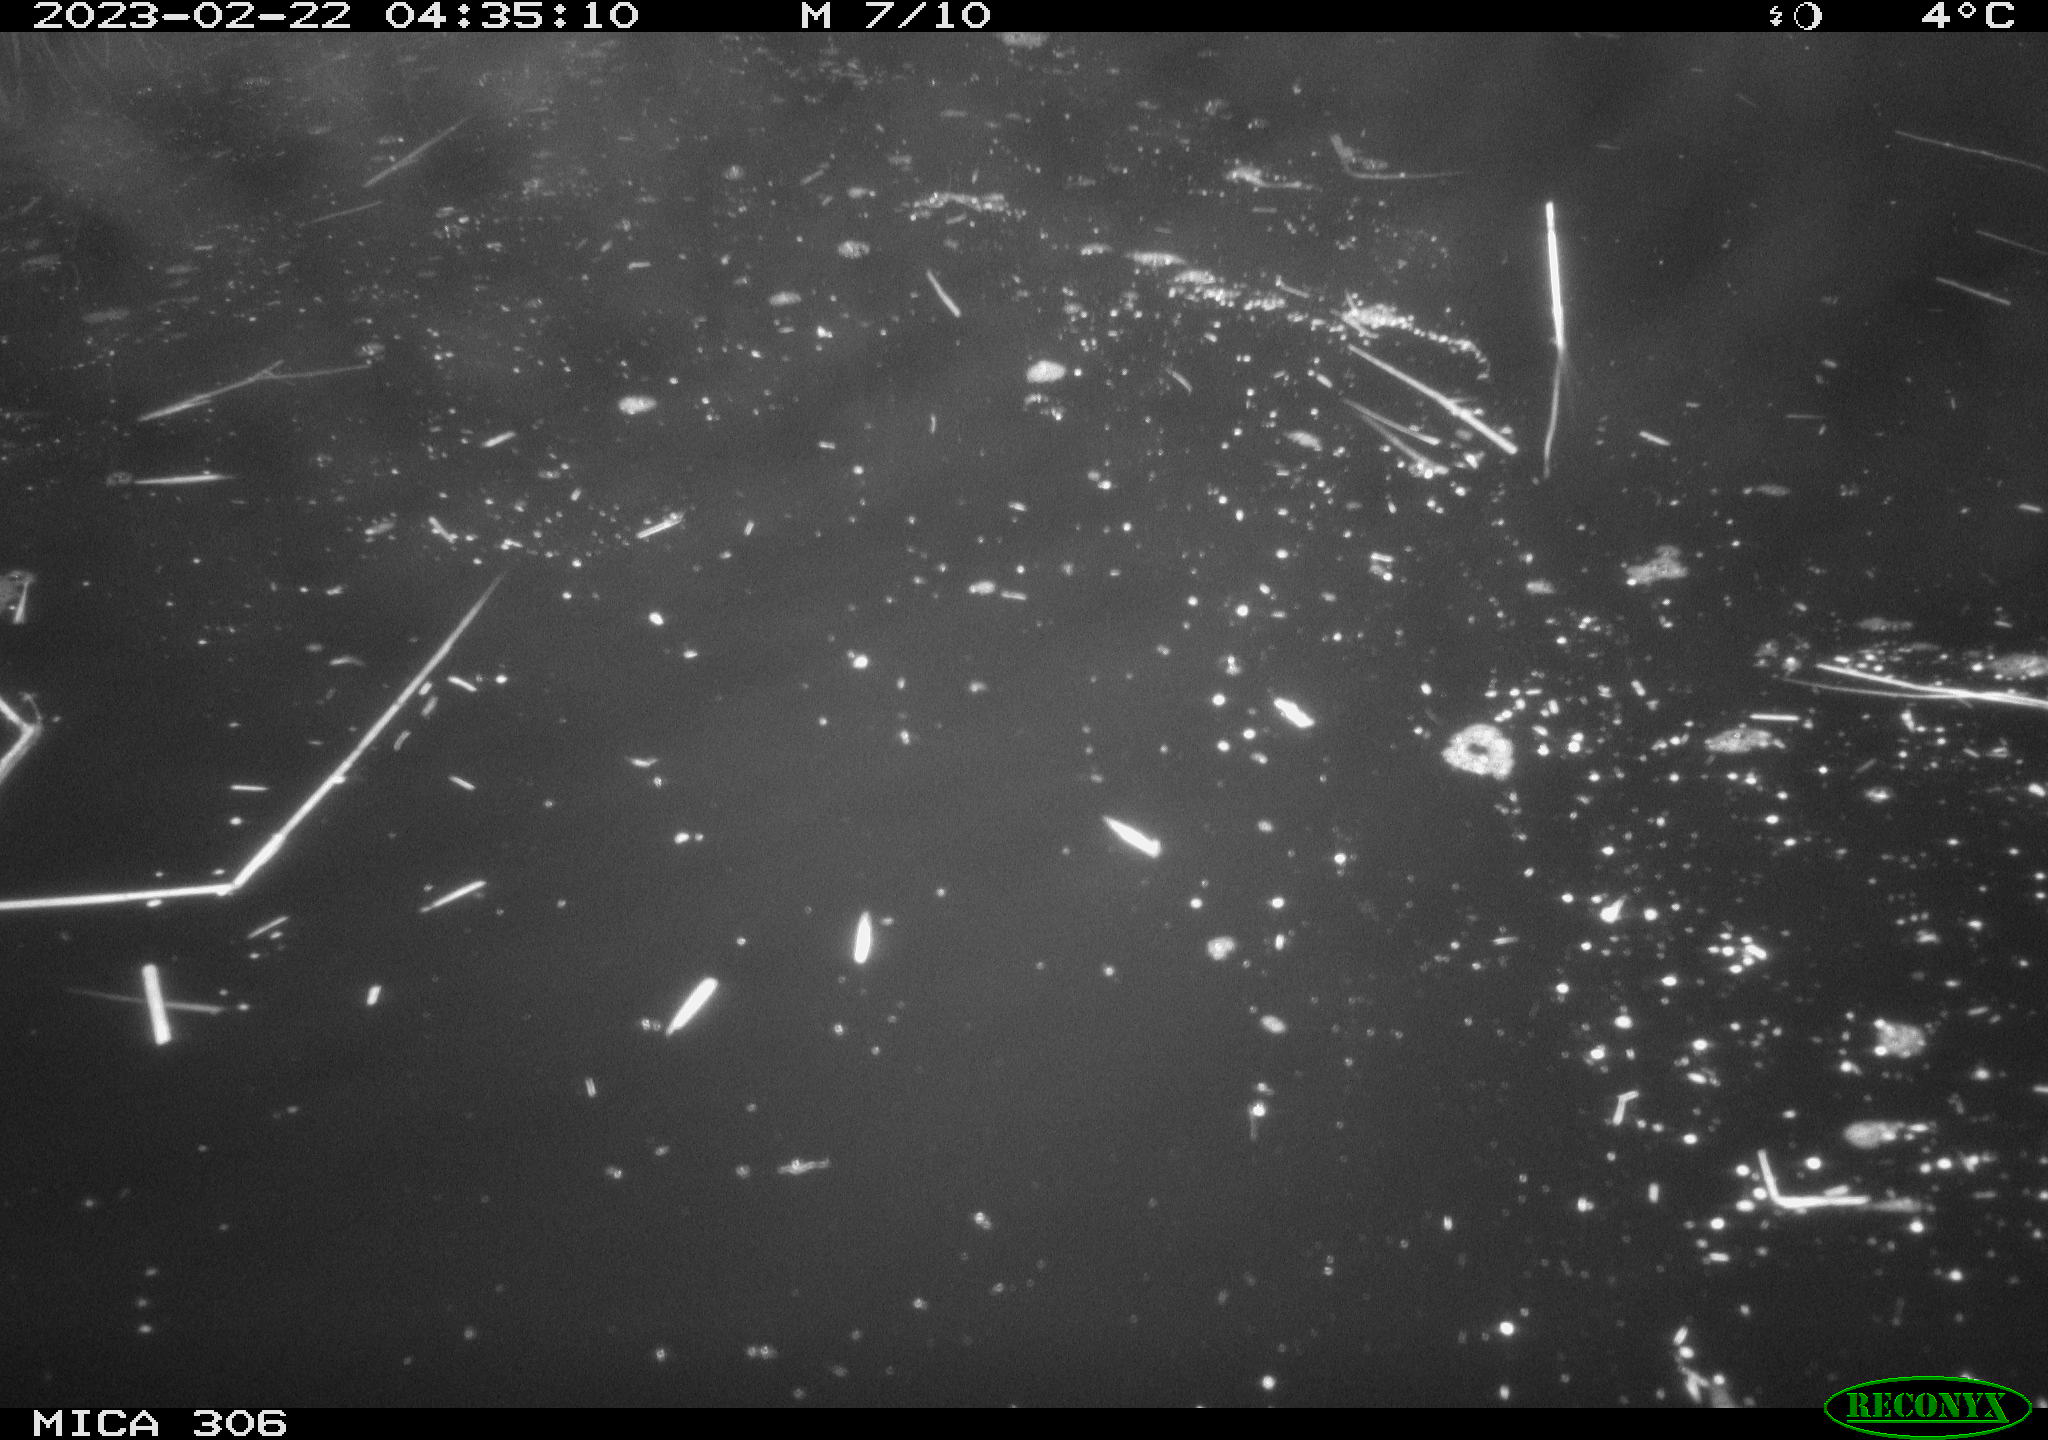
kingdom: Animalia
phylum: Chordata
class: Mammalia
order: Rodentia
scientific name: Rodentia
